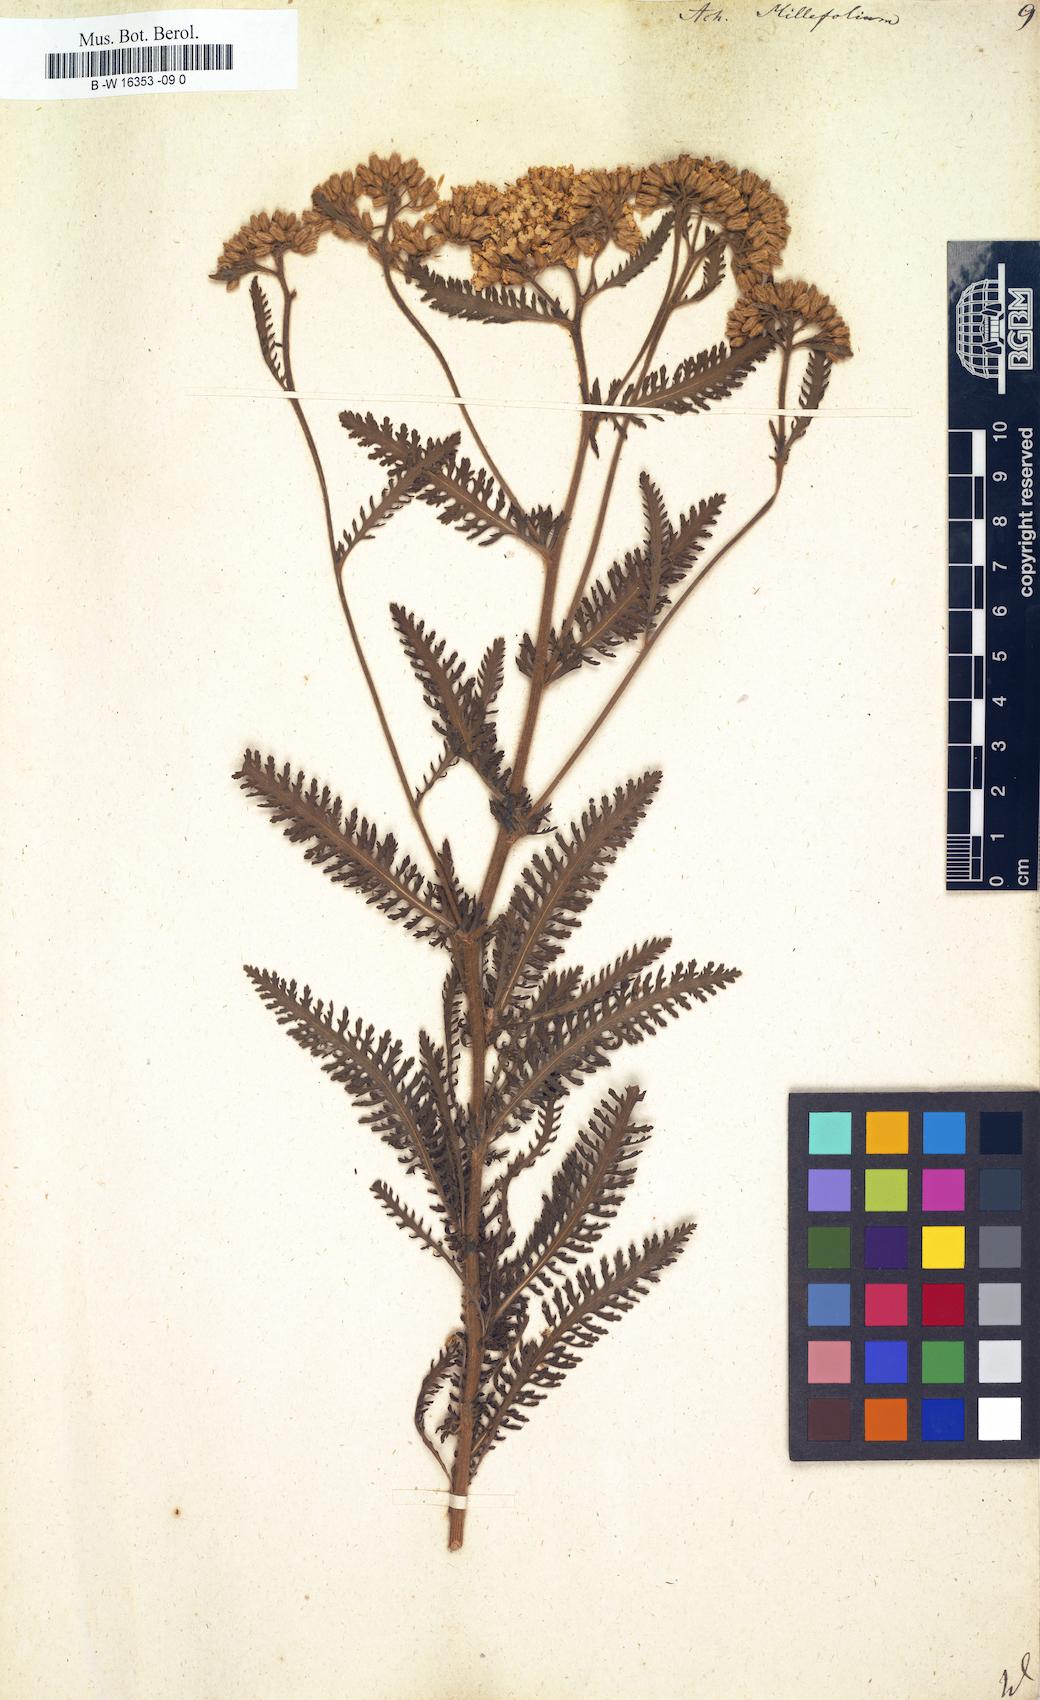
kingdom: Plantae
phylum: Tracheophyta
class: Magnoliopsida
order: Asterales
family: Asteraceae
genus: Achillea
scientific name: Achillea millefolium
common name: Yarrow
